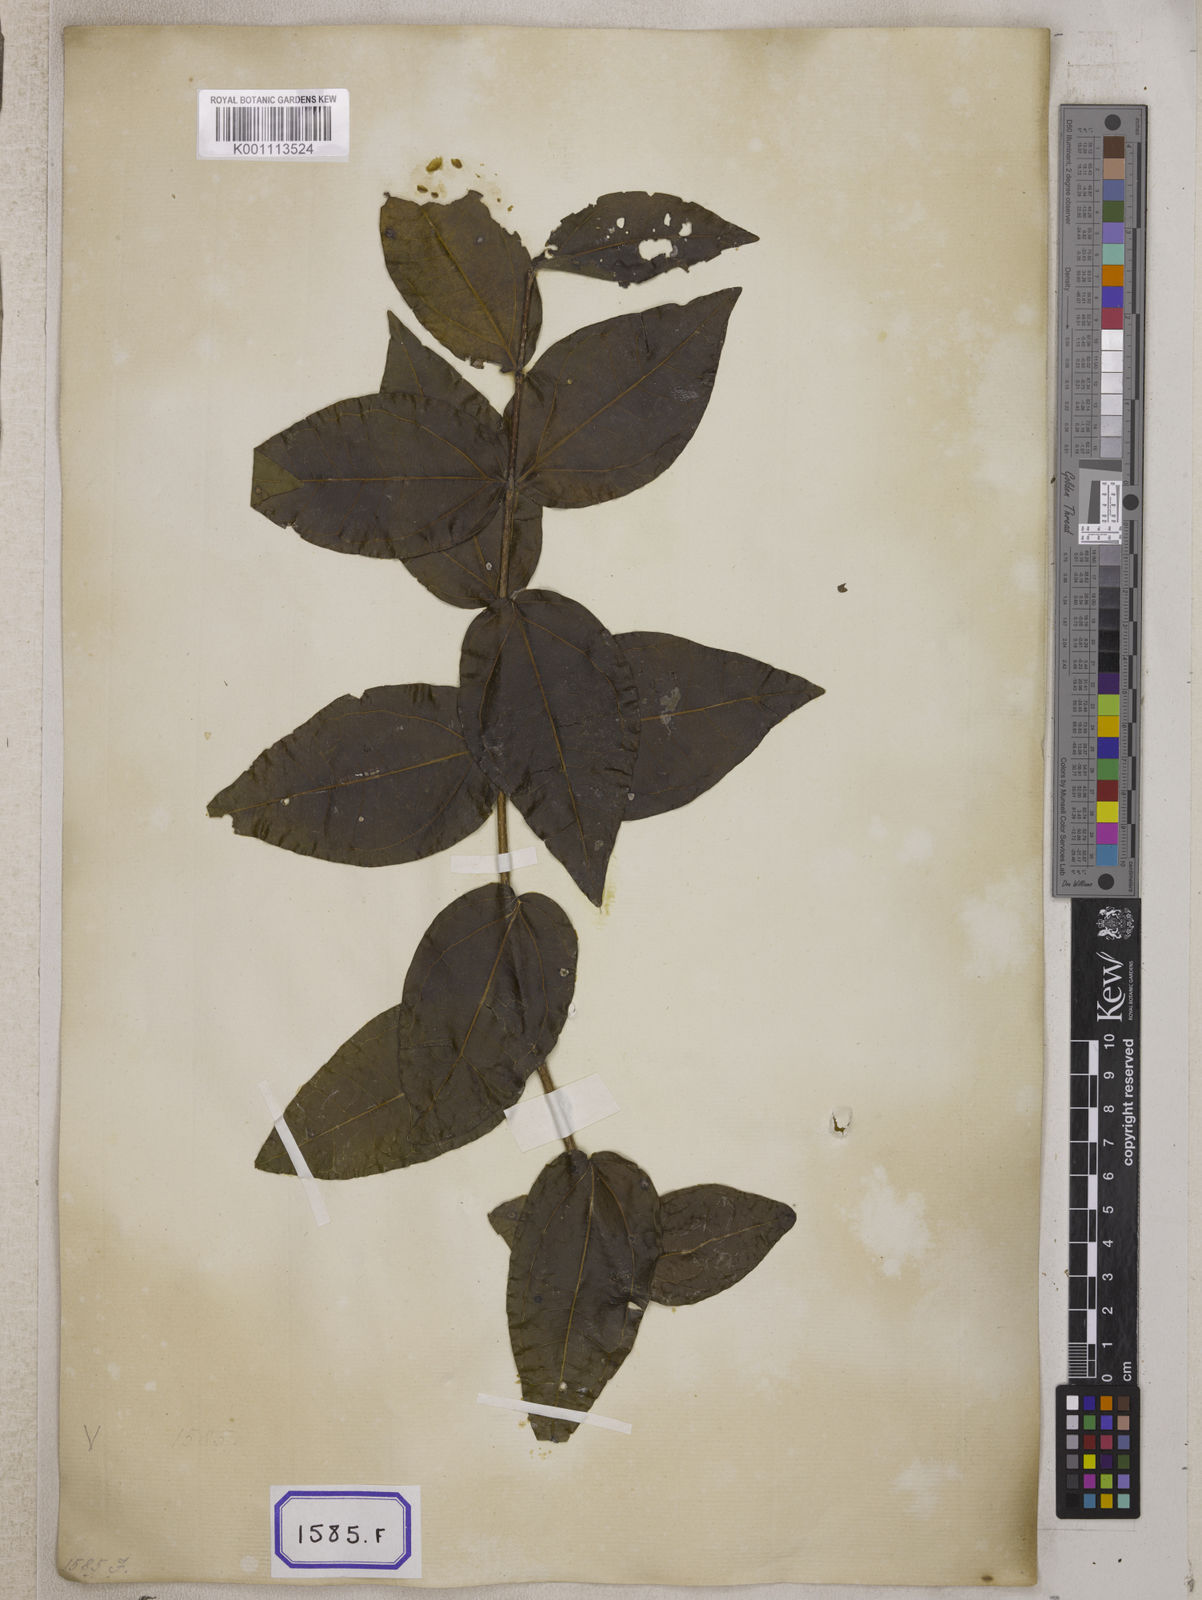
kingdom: Plantae
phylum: Tracheophyta
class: Magnoliopsida
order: Gentianales
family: Loganiaceae
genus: Strychnos
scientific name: Strychnos potatorum
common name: Clearing-nut-tree
